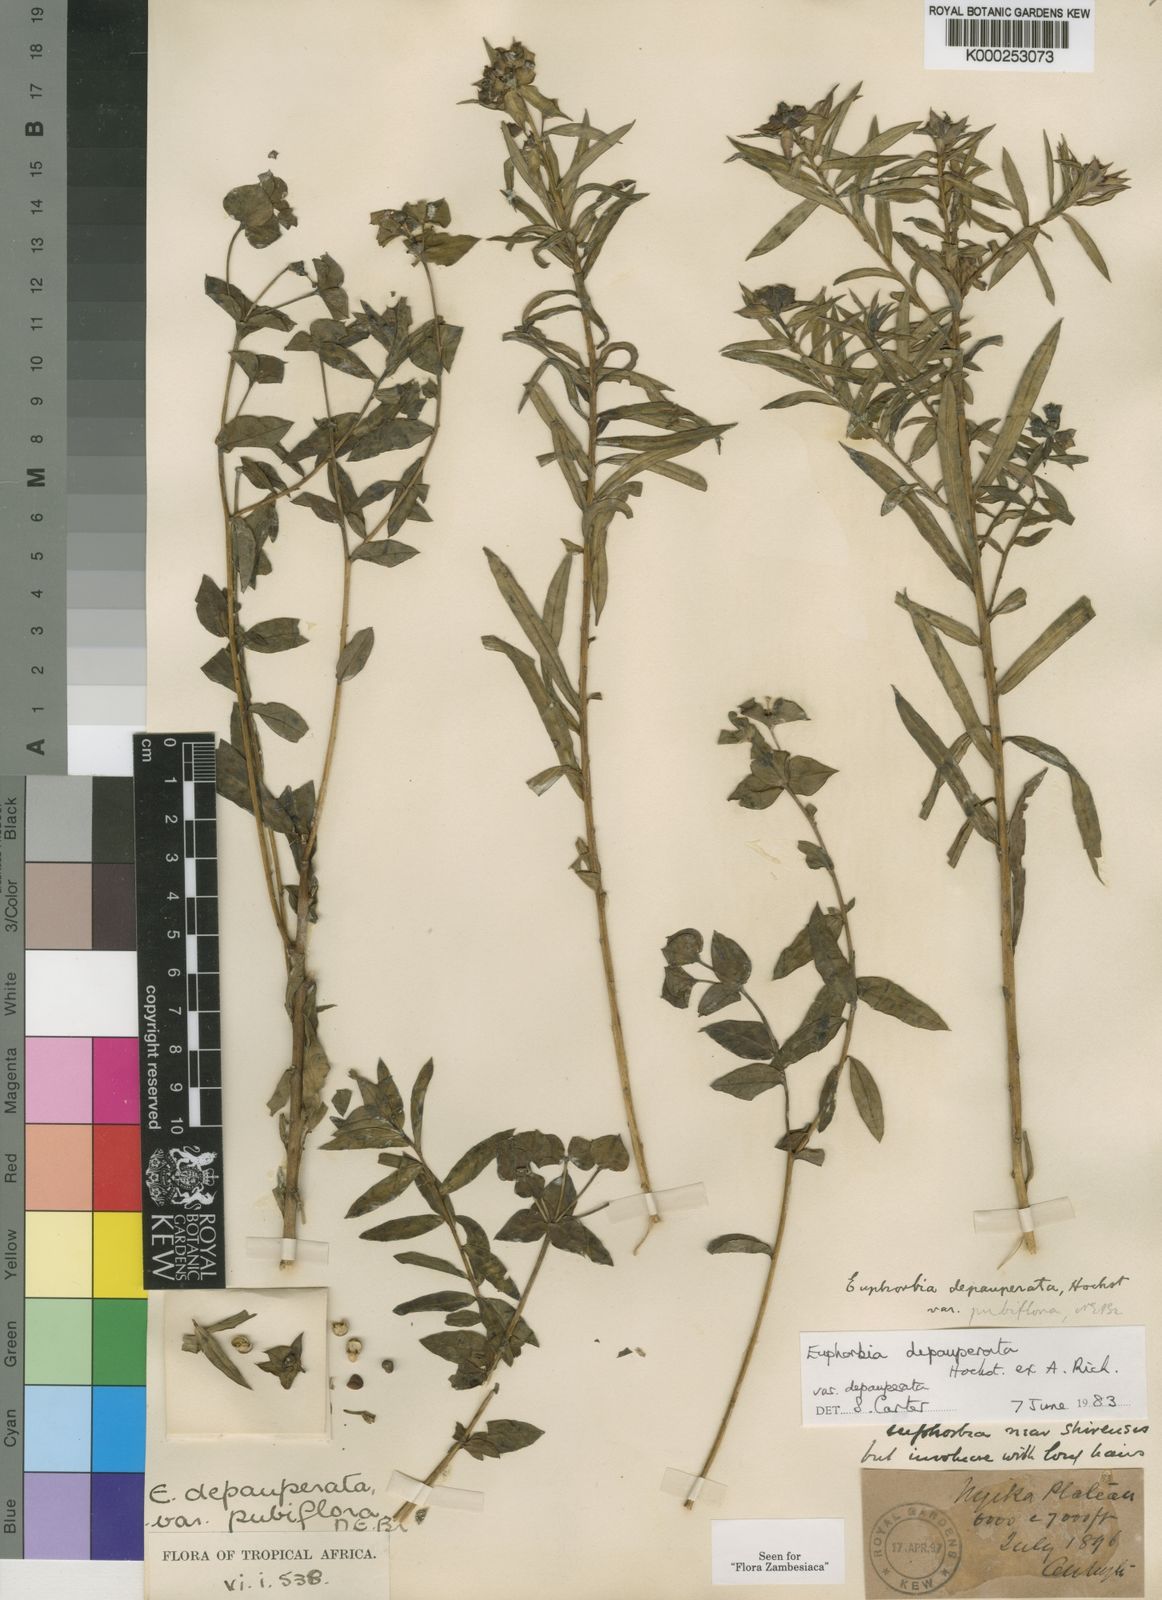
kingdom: Plantae
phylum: Tracheophyta
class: Magnoliopsida
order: Malpighiales
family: Euphorbiaceae
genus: Euphorbia
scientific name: Euphorbia depauperata
